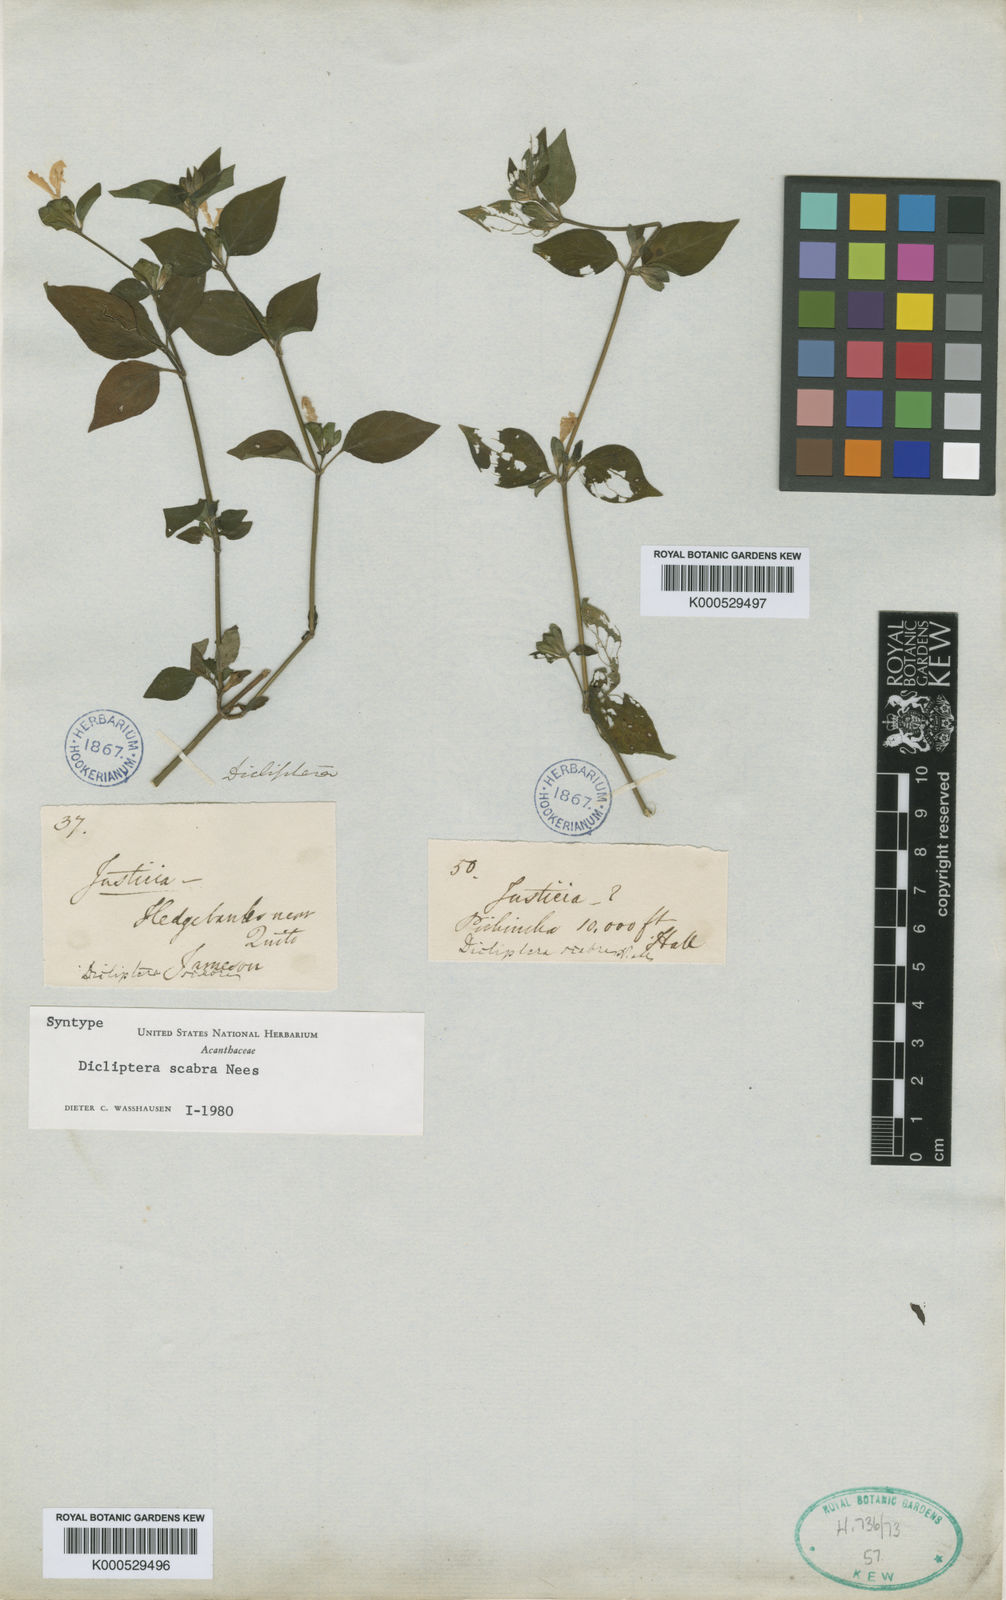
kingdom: Plantae
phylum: Tracheophyta
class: Magnoliopsida
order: Lamiales
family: Acanthaceae
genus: Dicliptera
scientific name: Dicliptera scabra
